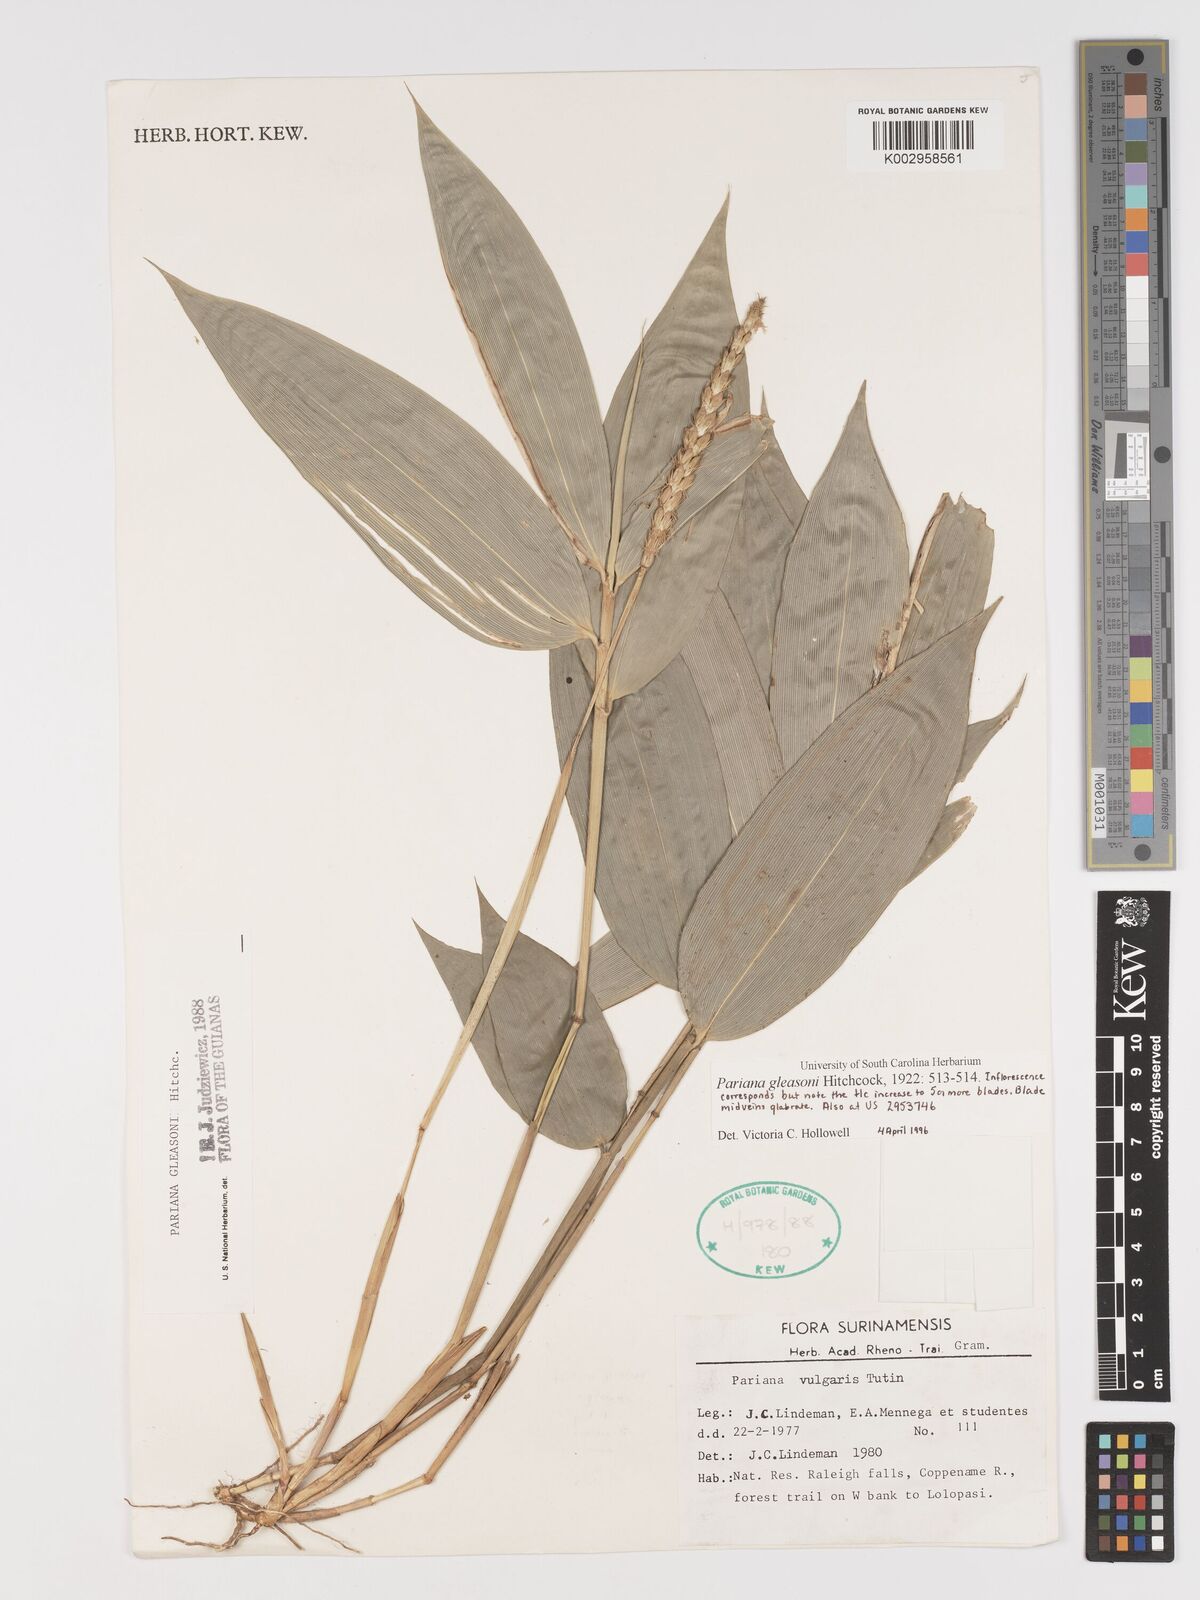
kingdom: Plantae
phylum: Tracheophyta
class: Liliopsida
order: Poales
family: Poaceae
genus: Pariana
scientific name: Pariana radiciflora
